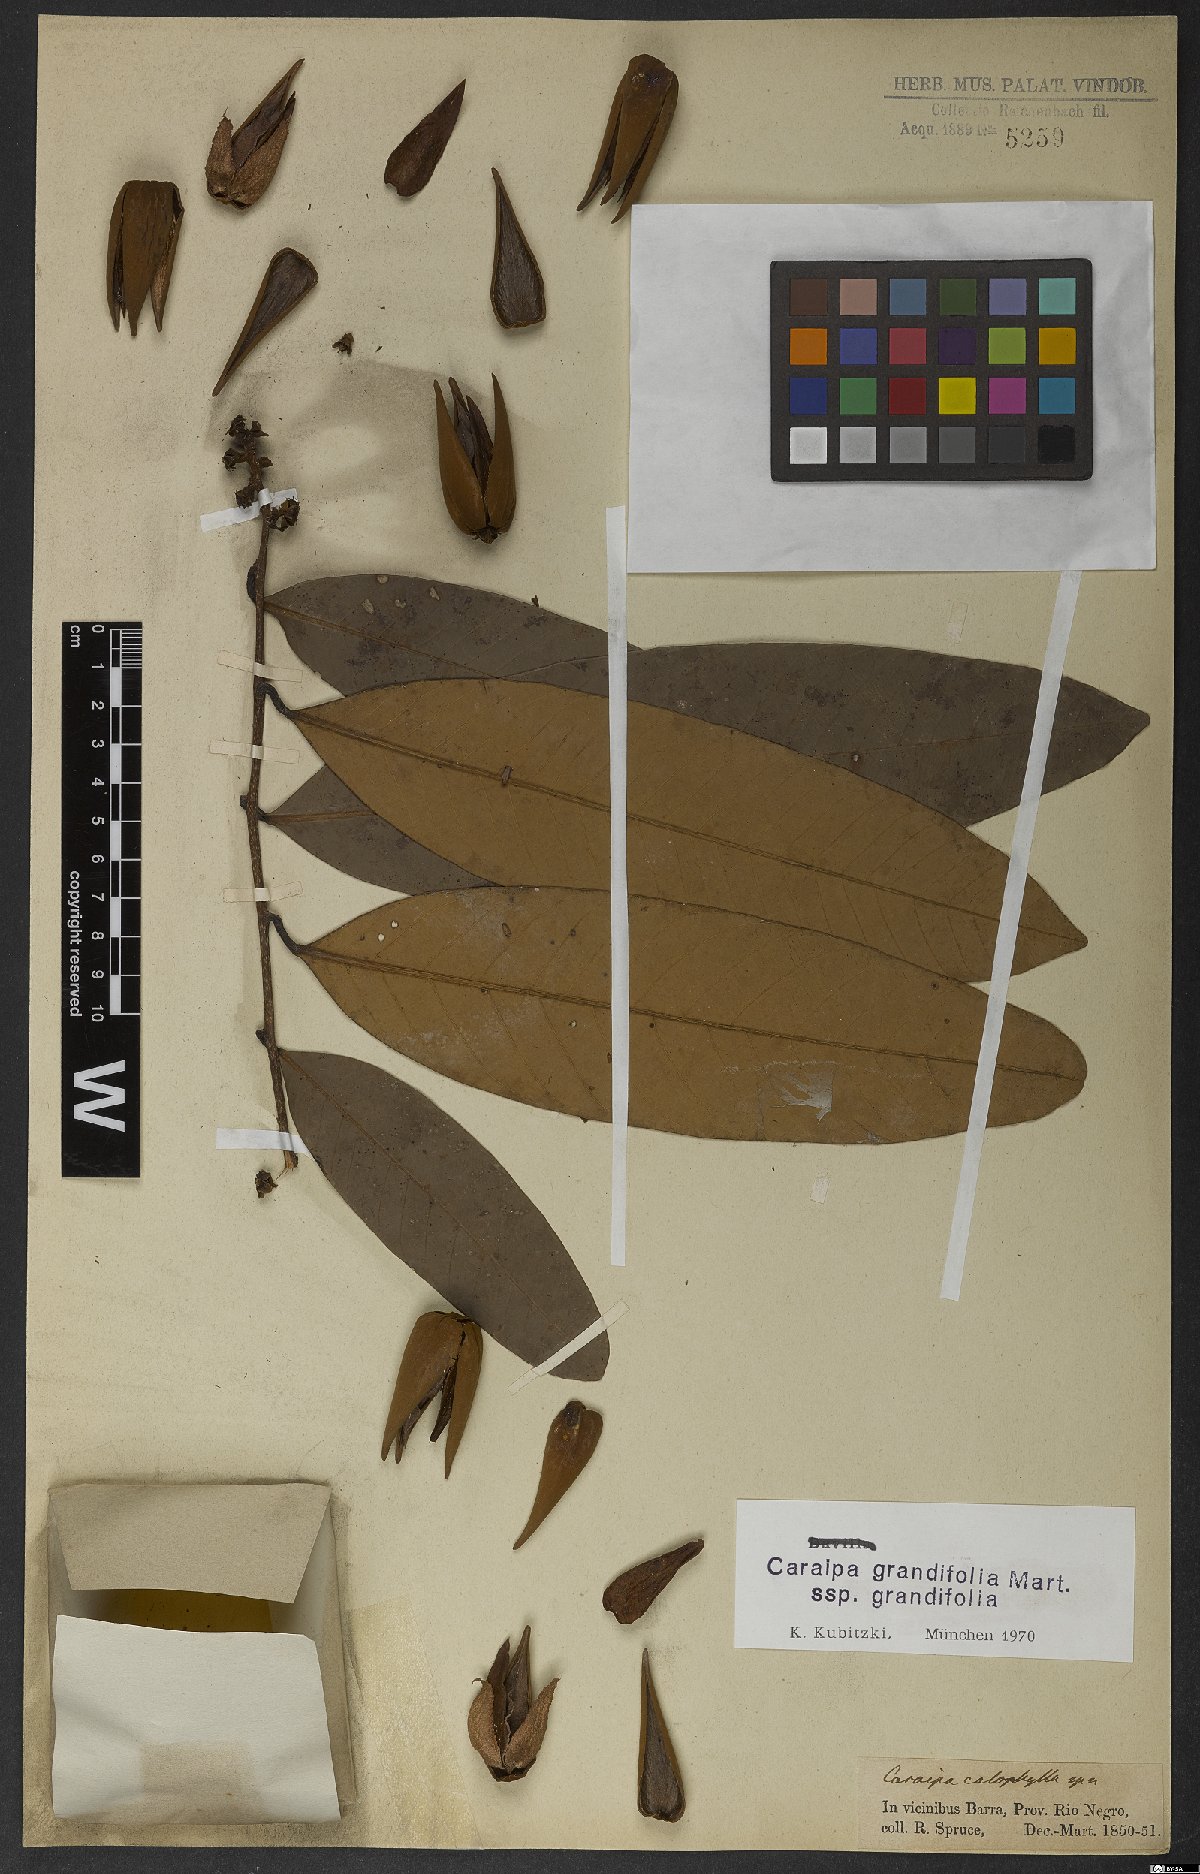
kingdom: Plantae
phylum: Tracheophyta
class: Magnoliopsida
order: Malpighiales
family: Calophyllaceae
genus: Caraipa
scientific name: Caraipa grandifolia
